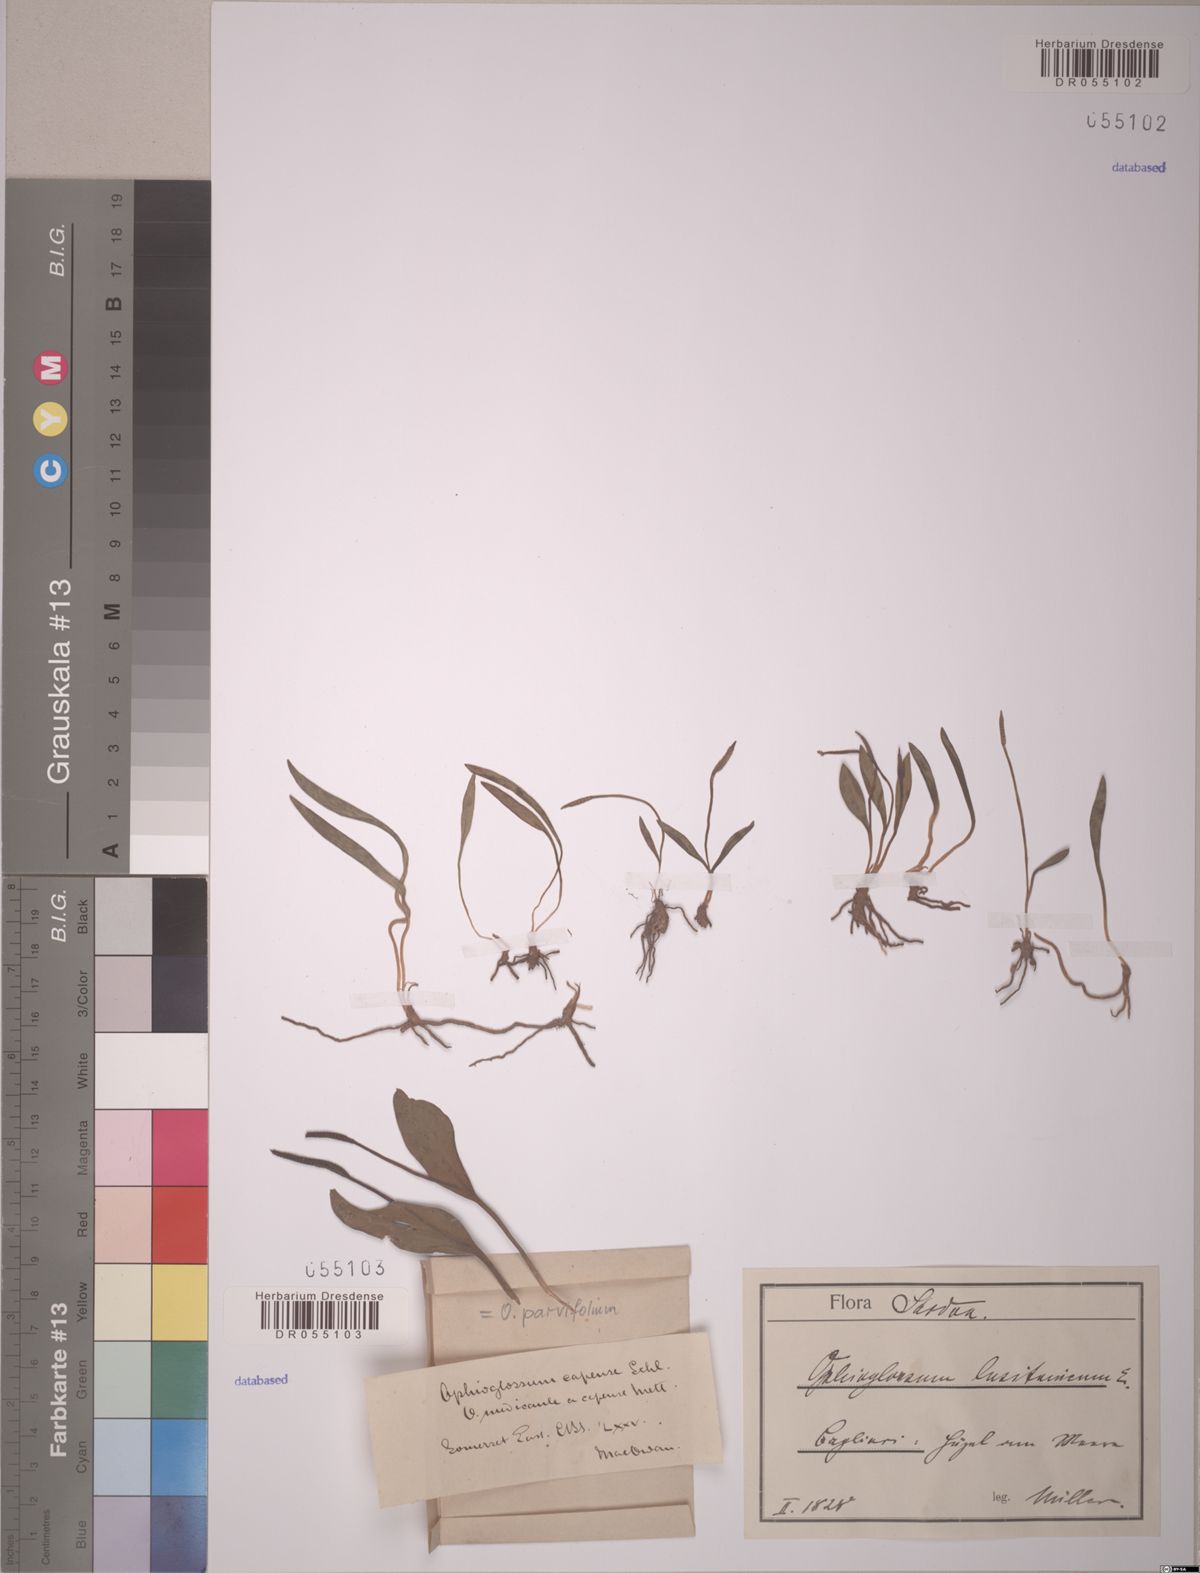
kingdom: Plantae
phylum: Tracheophyta
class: Polypodiopsida
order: Ophioglossales
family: Ophioglossaceae
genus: Ophioglossum
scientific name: Ophioglossum parvifolium
